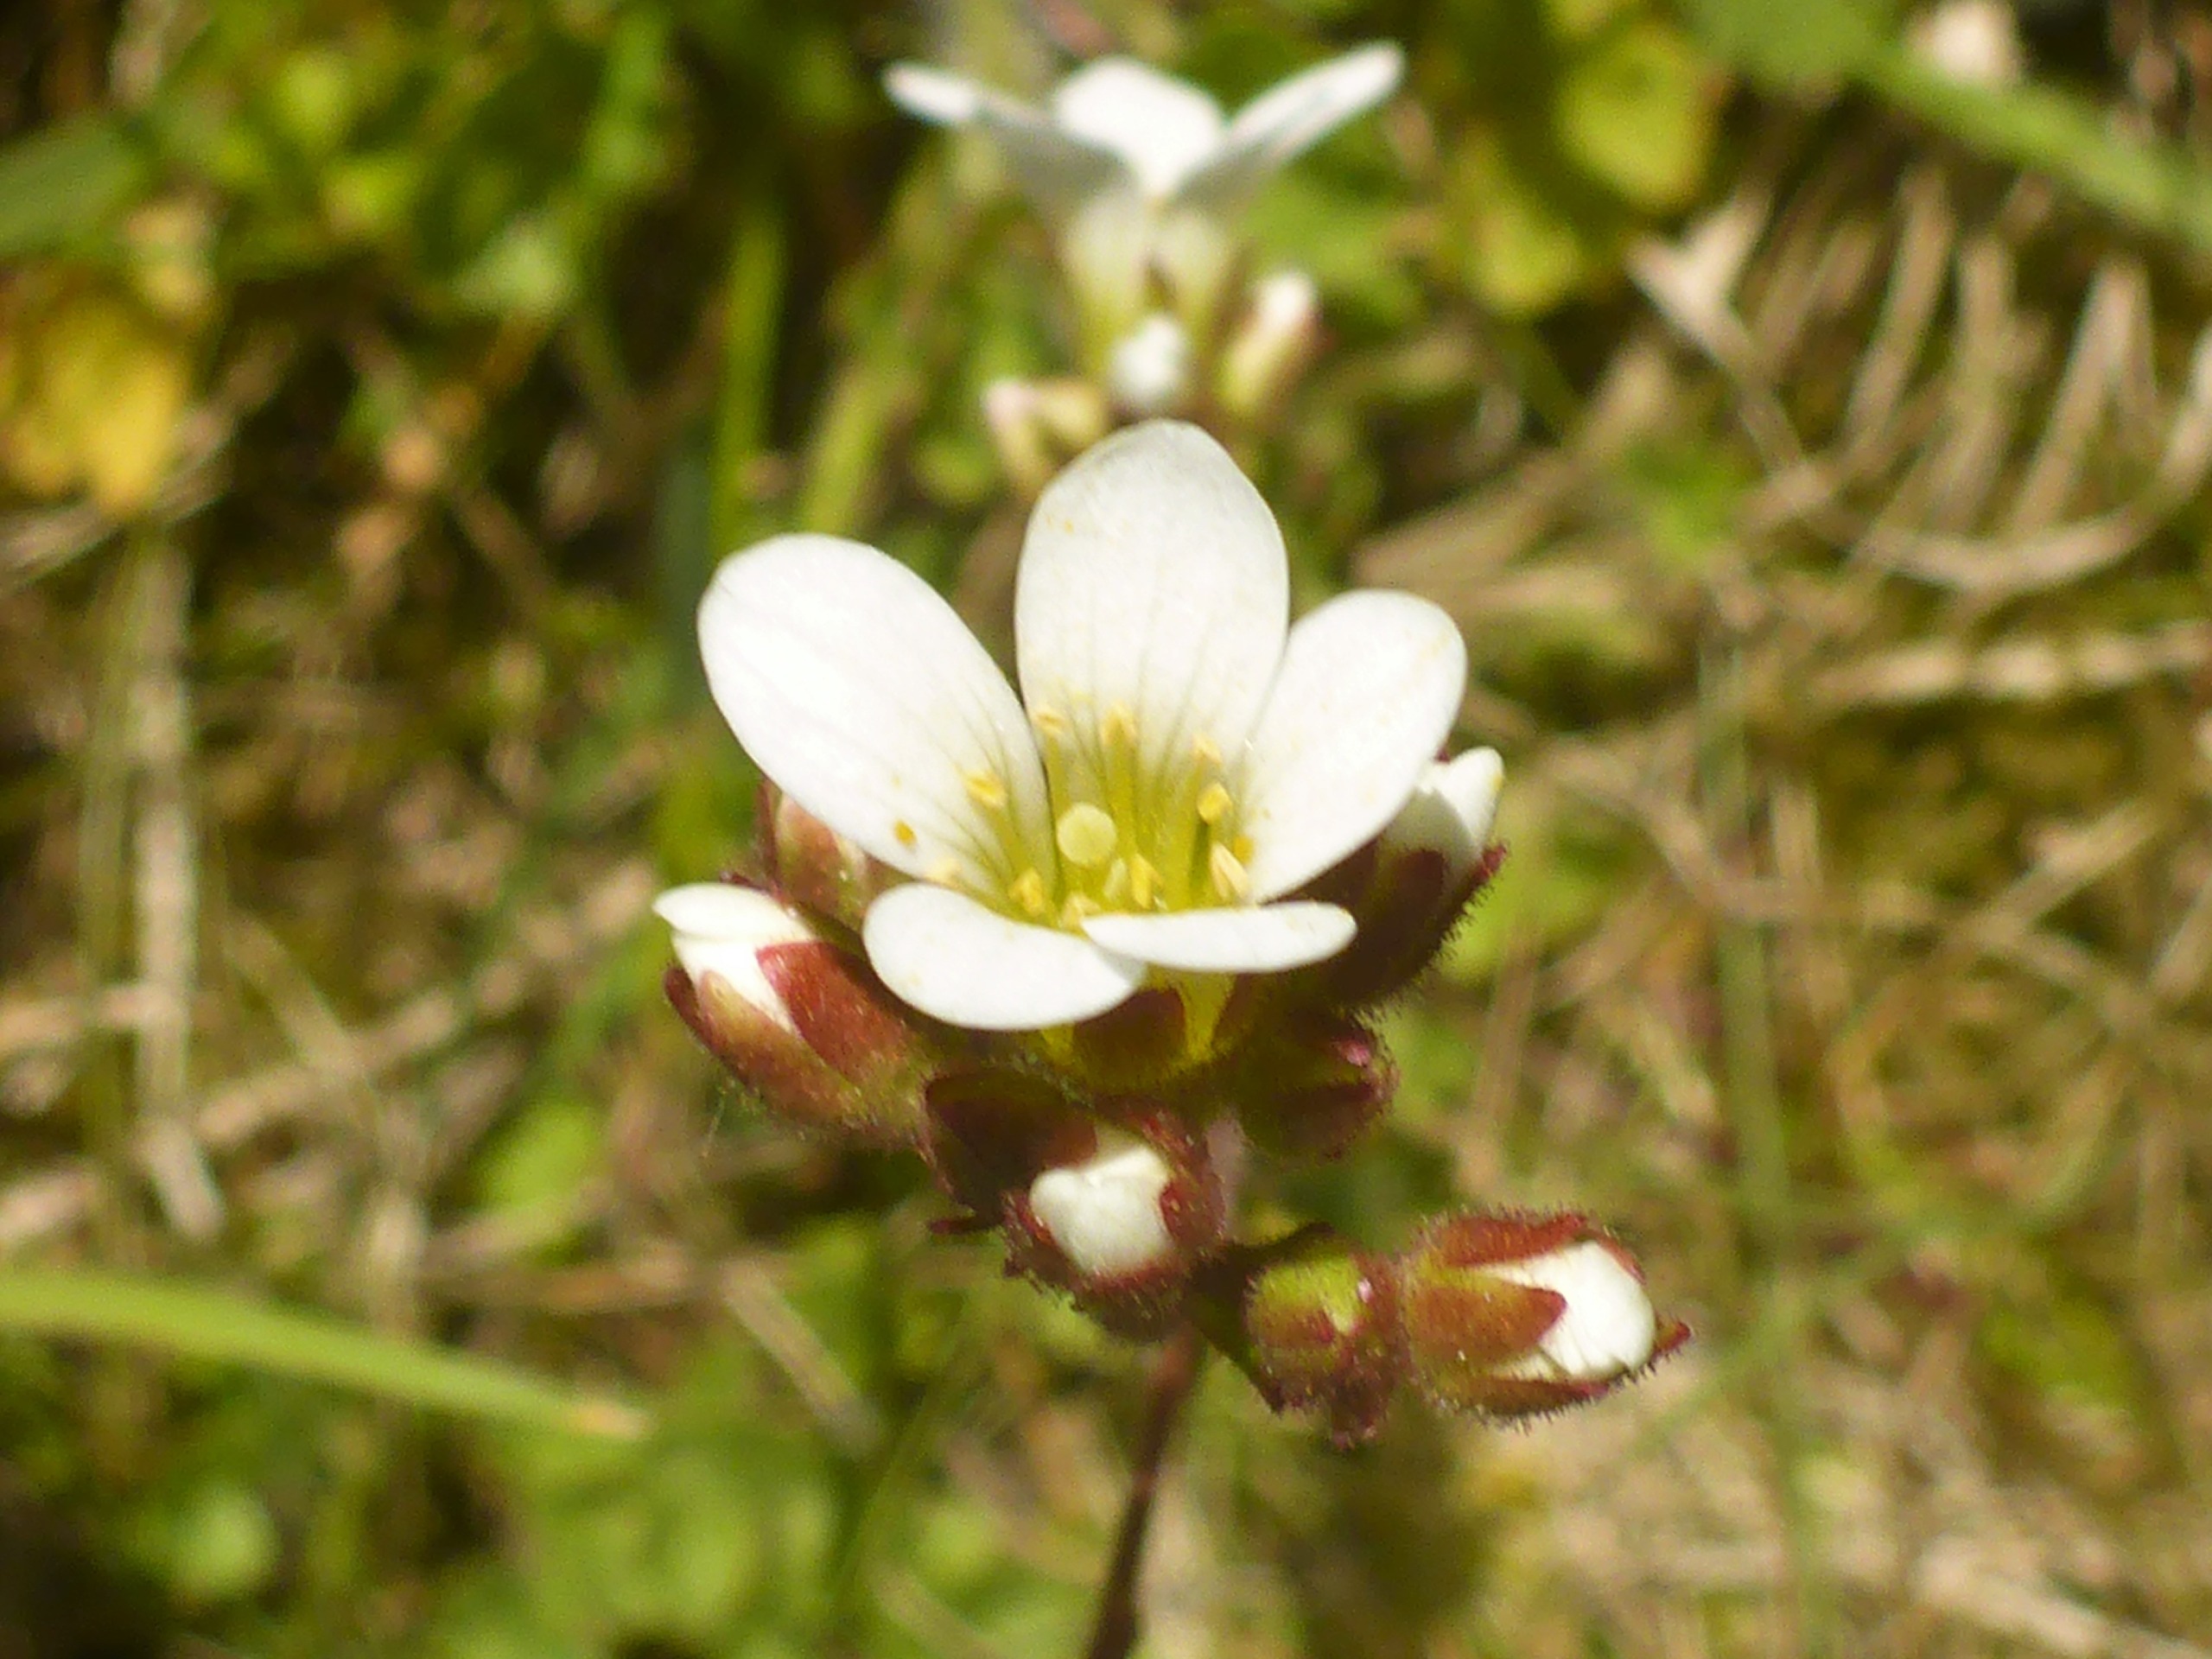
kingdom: Plantae
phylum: Tracheophyta
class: Magnoliopsida
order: Saxifragales
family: Saxifragaceae
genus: Saxifraga
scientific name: Saxifraga granulata
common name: Kornet stenbræk
